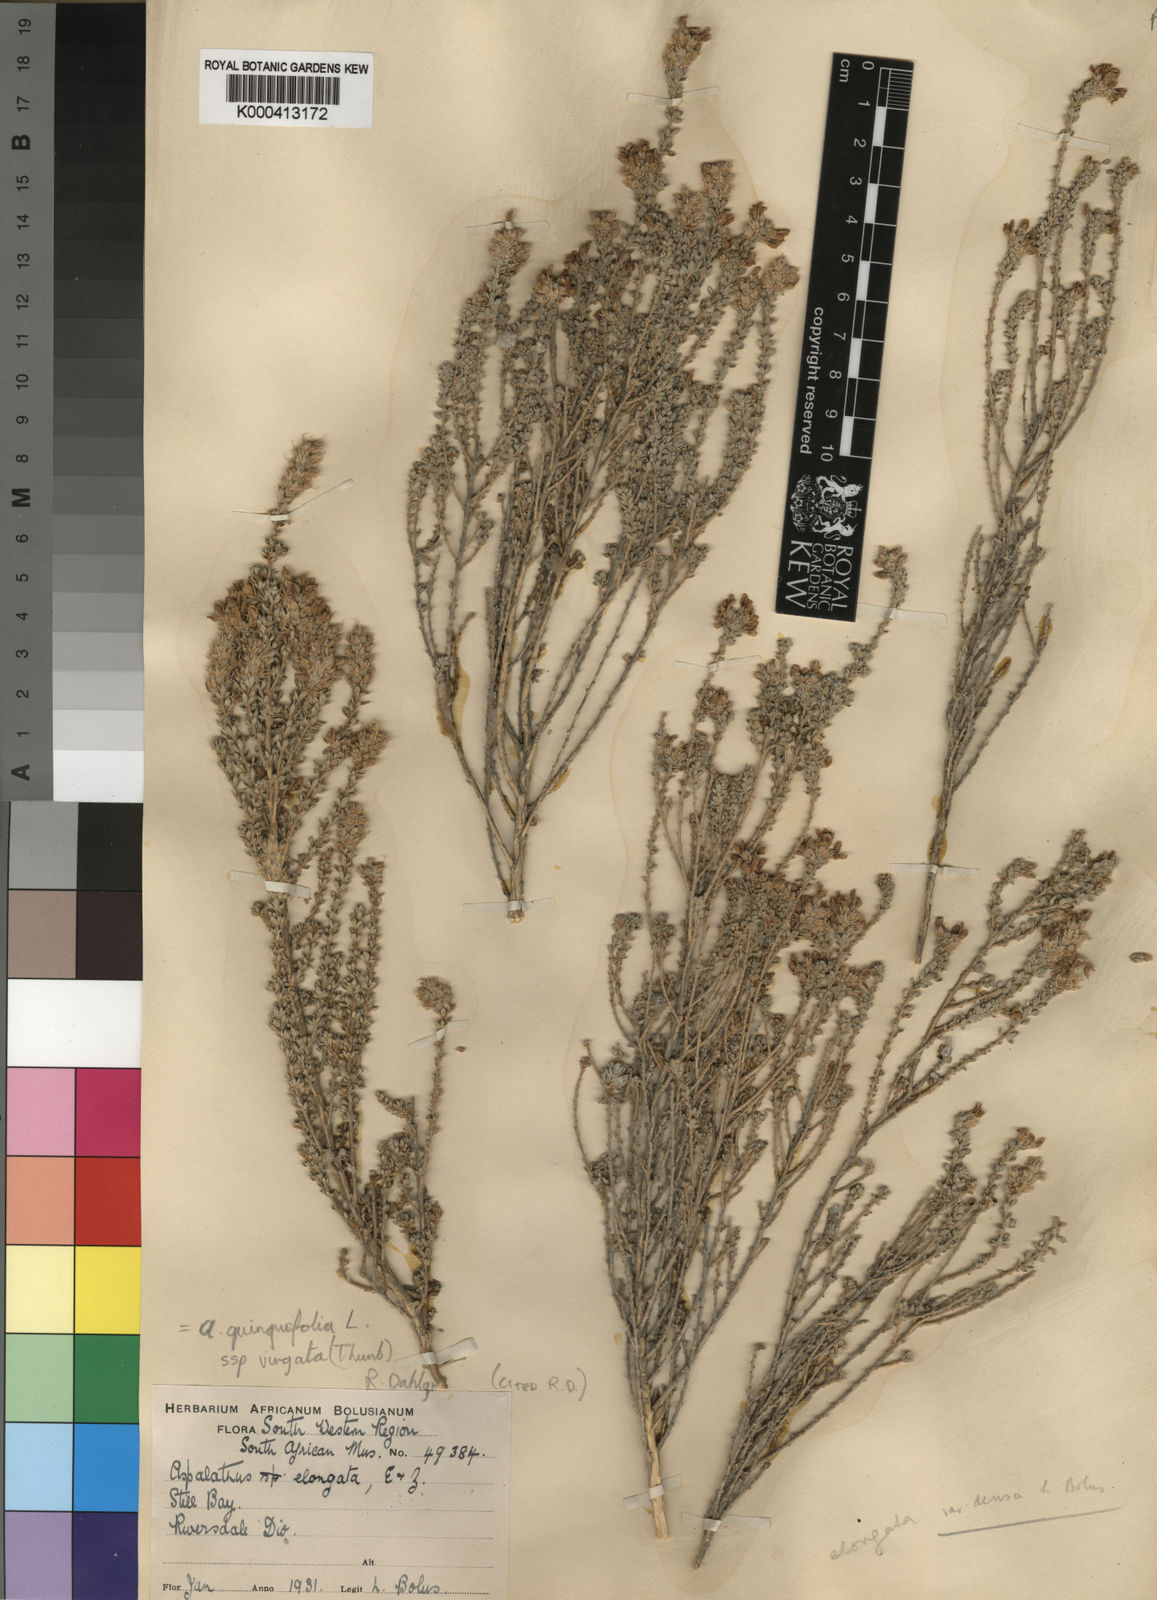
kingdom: Plantae
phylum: Tracheophyta
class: Magnoliopsida
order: Fabales
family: Fabaceae
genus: Aspalathus
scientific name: Aspalathus quinquefolia
